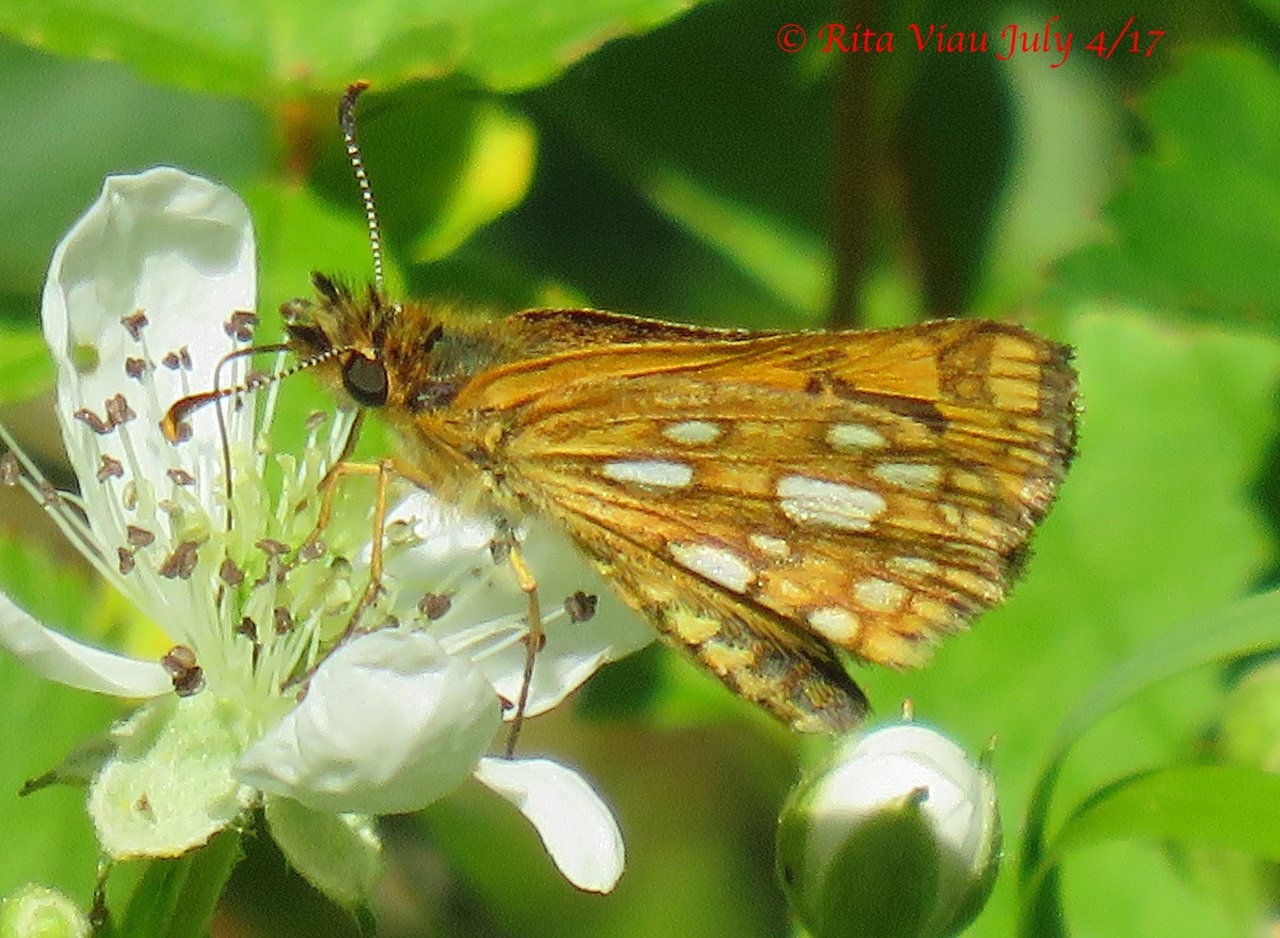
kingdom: Animalia
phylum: Arthropoda
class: Insecta
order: Lepidoptera
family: Hesperiidae
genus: Carterocephalus
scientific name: Carterocephalus palaemon
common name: Chequered Skipper
